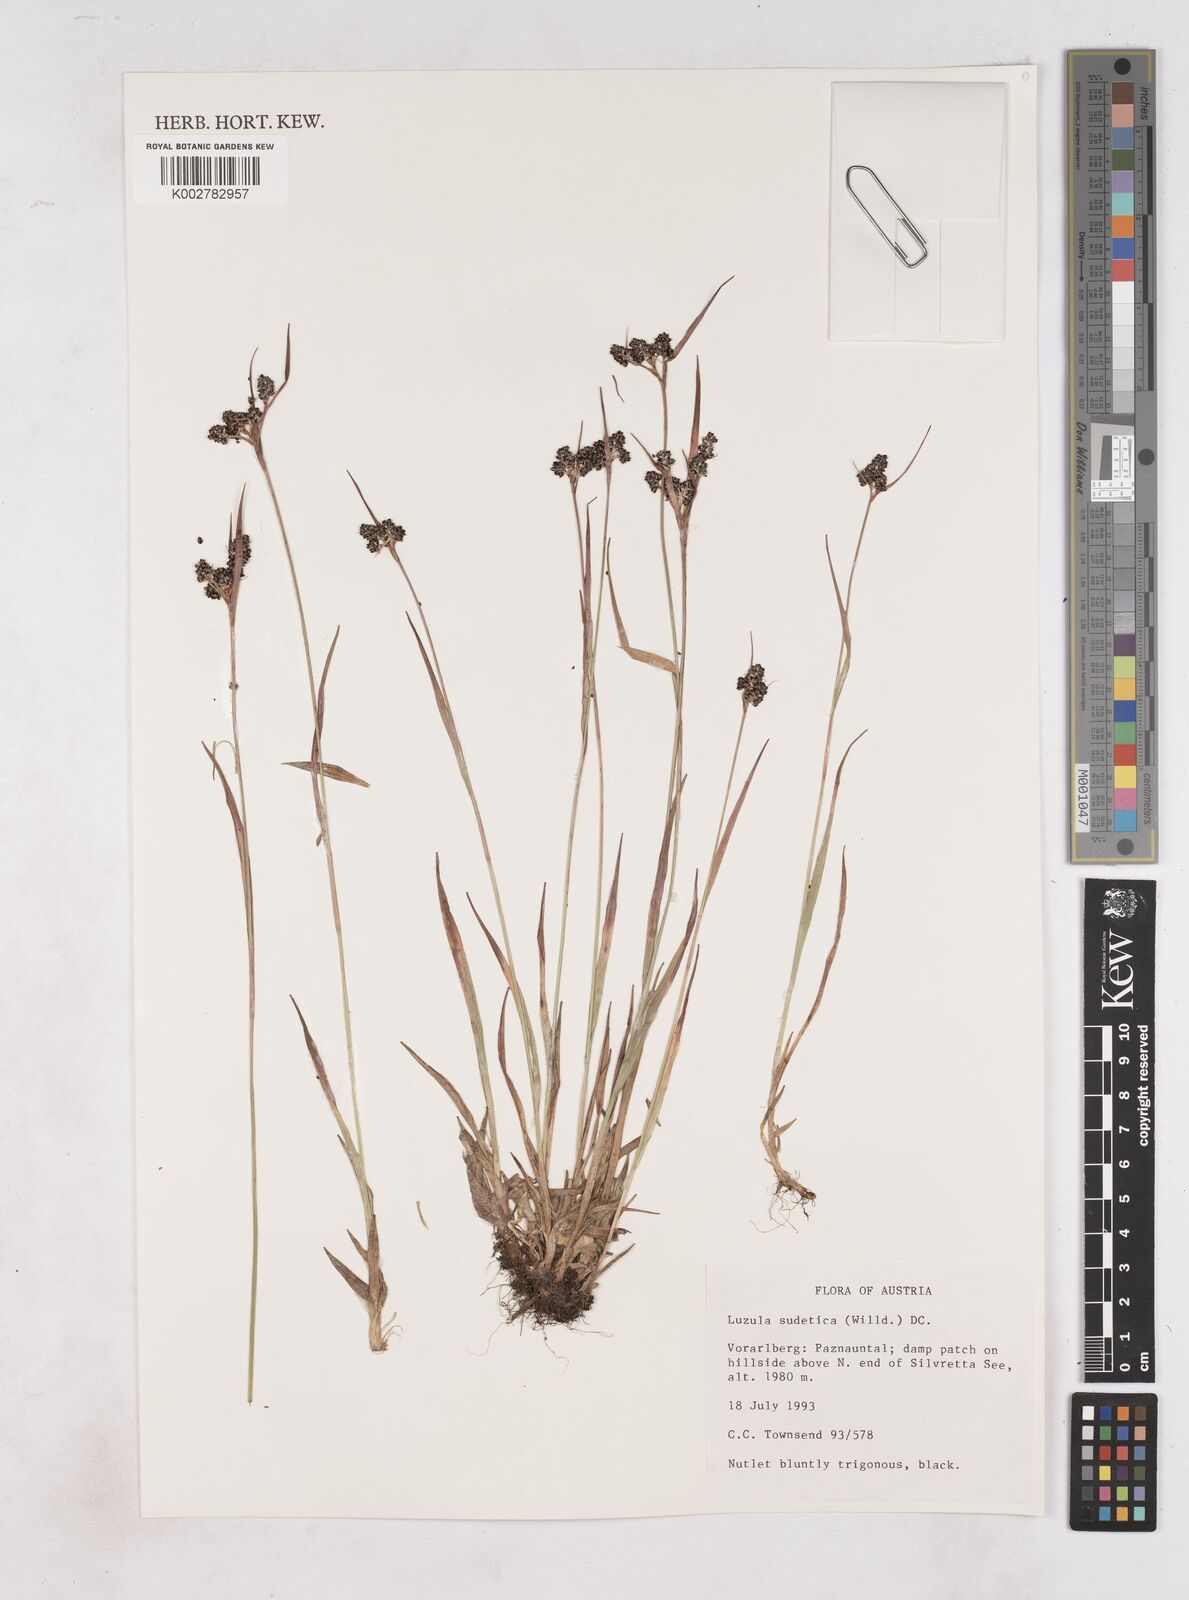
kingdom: Plantae
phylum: Tracheophyta
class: Liliopsida
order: Poales
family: Juncaceae
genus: Luzula
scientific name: Luzula campestris
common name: Field wood-rush
